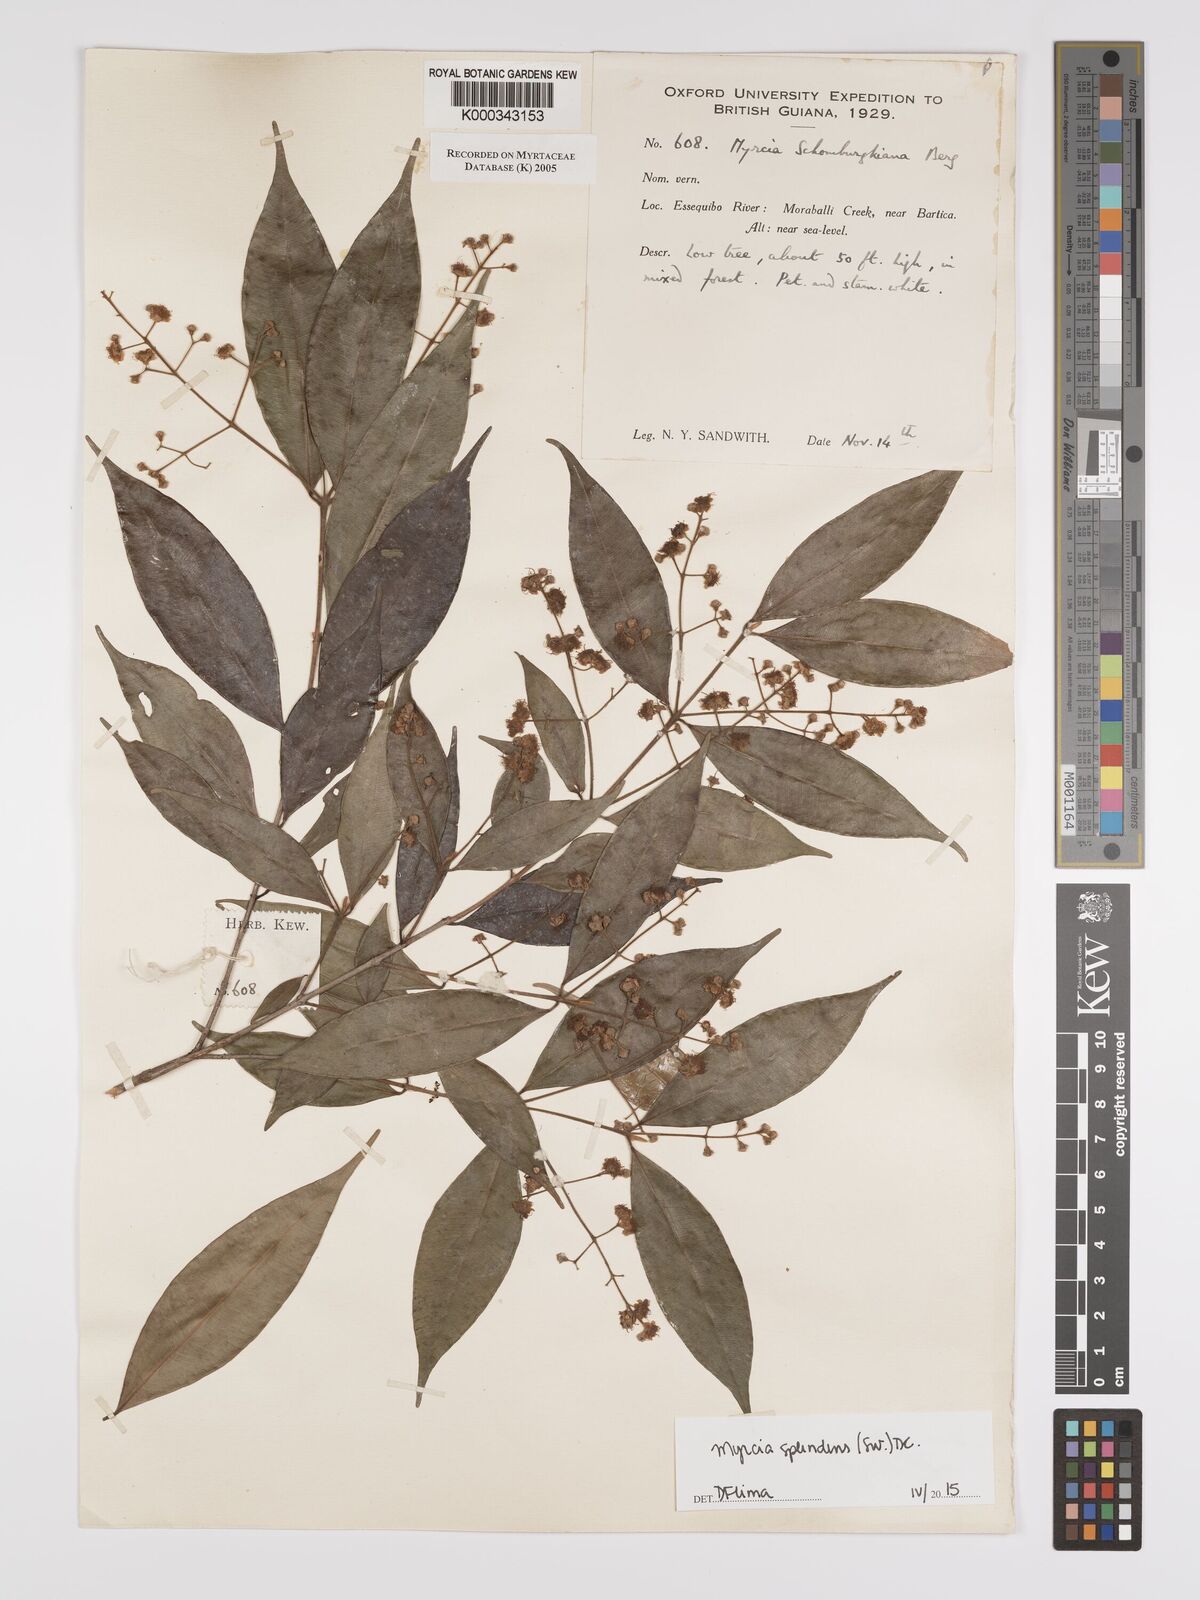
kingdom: Plantae
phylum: Tracheophyta
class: Magnoliopsida
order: Myrtales
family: Myrtaceae
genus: Myrcia
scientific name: Myrcia guianensis
